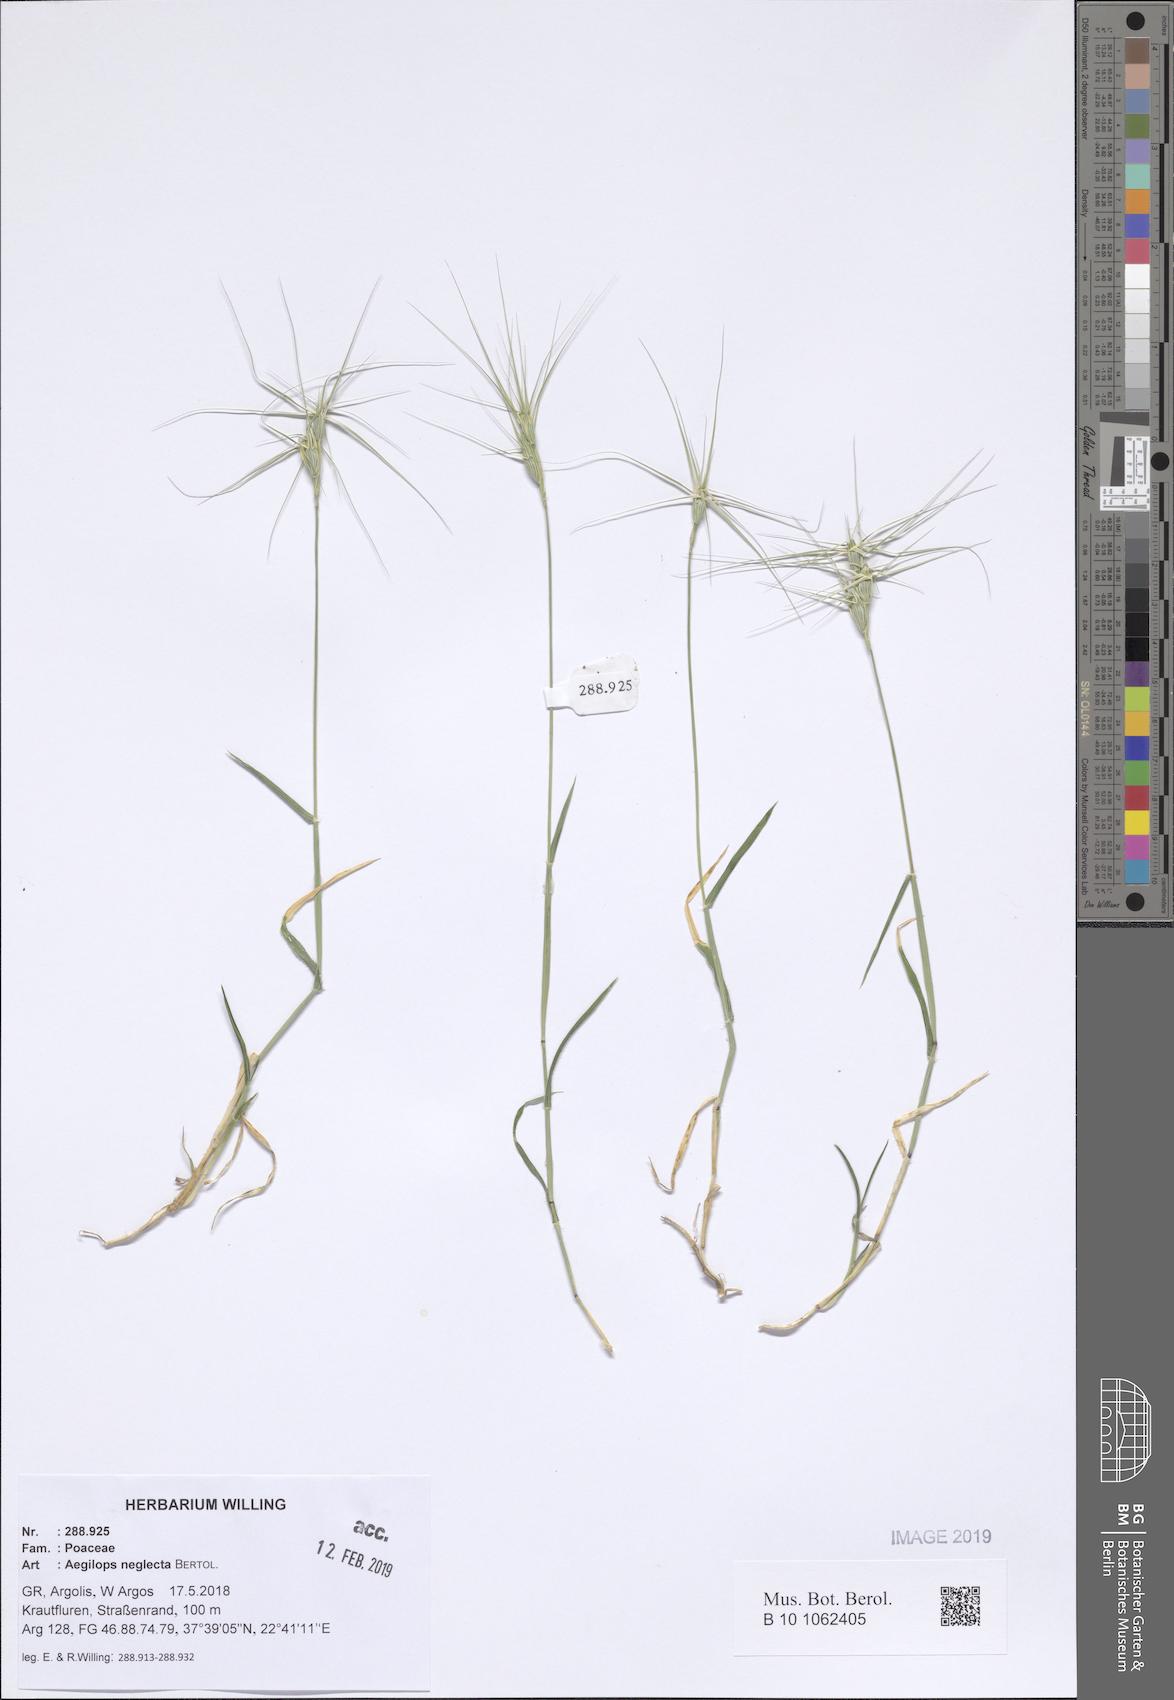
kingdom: Plantae
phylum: Tracheophyta
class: Liliopsida
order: Poales
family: Poaceae
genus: Aegilops
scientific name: Aegilops neglecta
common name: Three-awn goat grass
